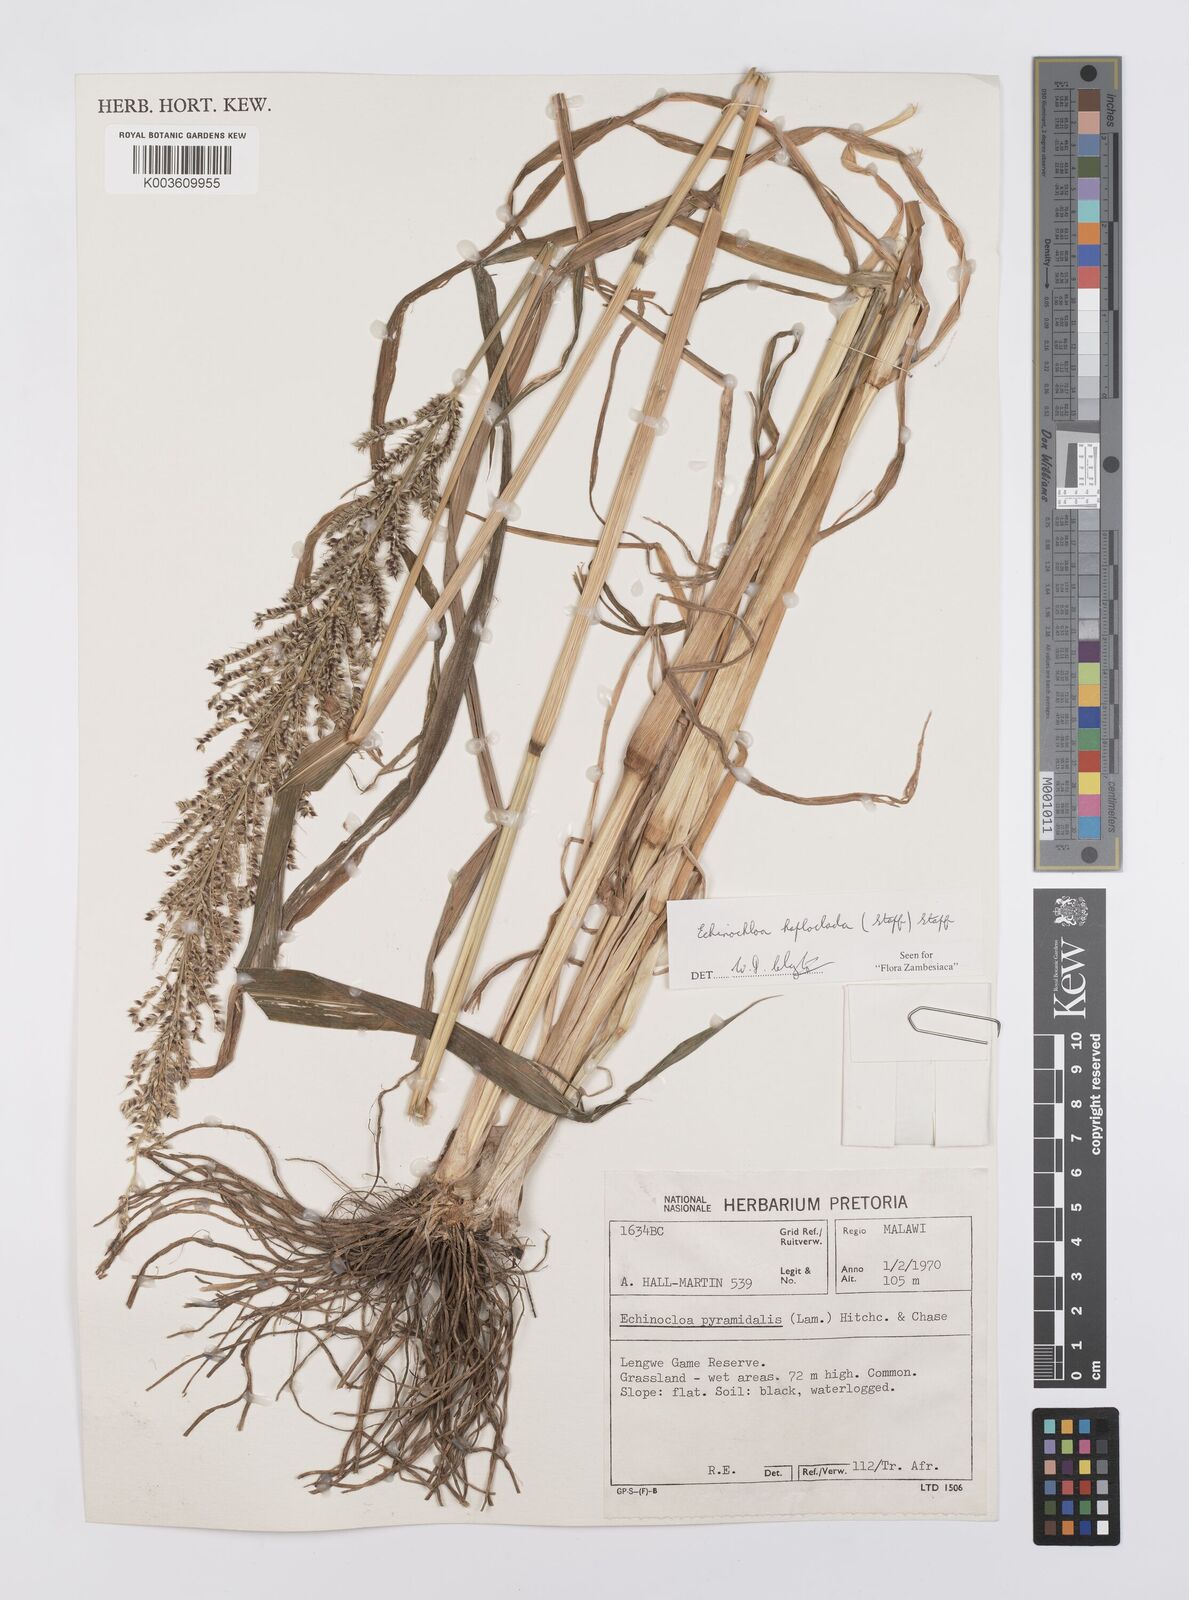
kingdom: Plantae
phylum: Tracheophyta
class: Liliopsida
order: Poales
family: Poaceae
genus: Echinochloa
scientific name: Echinochloa haploclada
